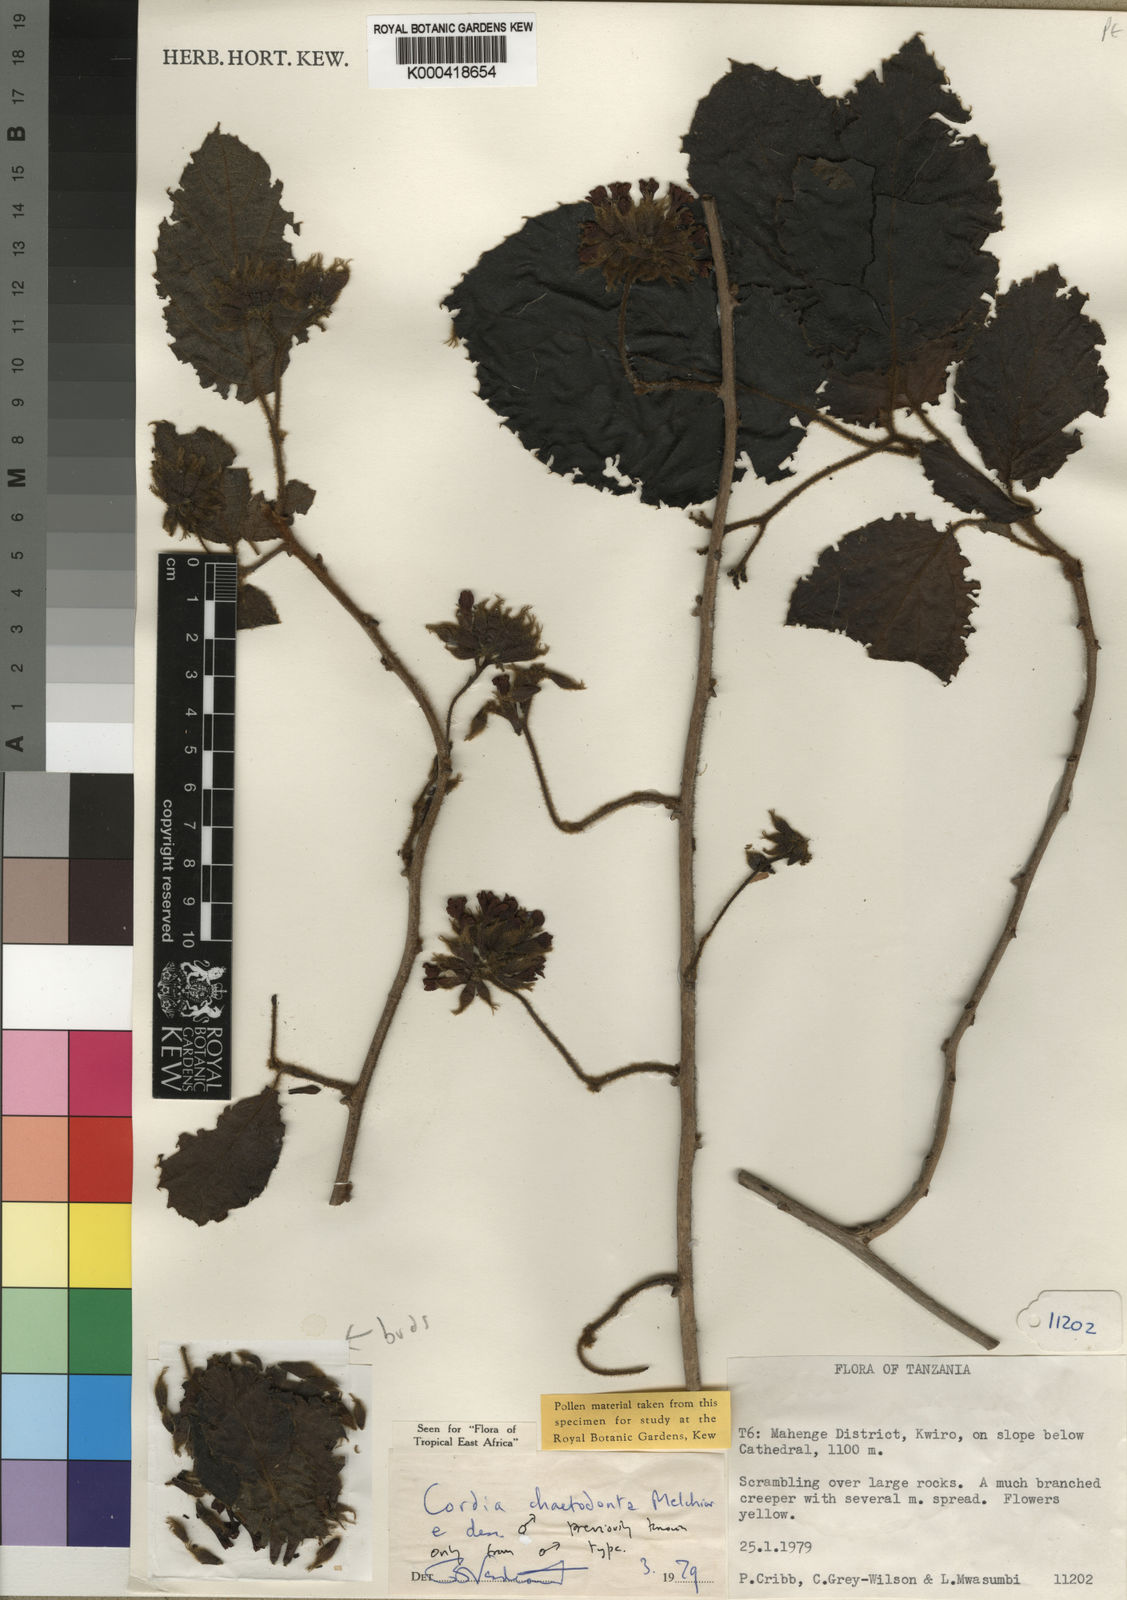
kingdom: Plantae
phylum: Tracheophyta
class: Magnoliopsida
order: Boraginales
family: Cordiaceae
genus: Cordia
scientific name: Cordia chaetodonta
